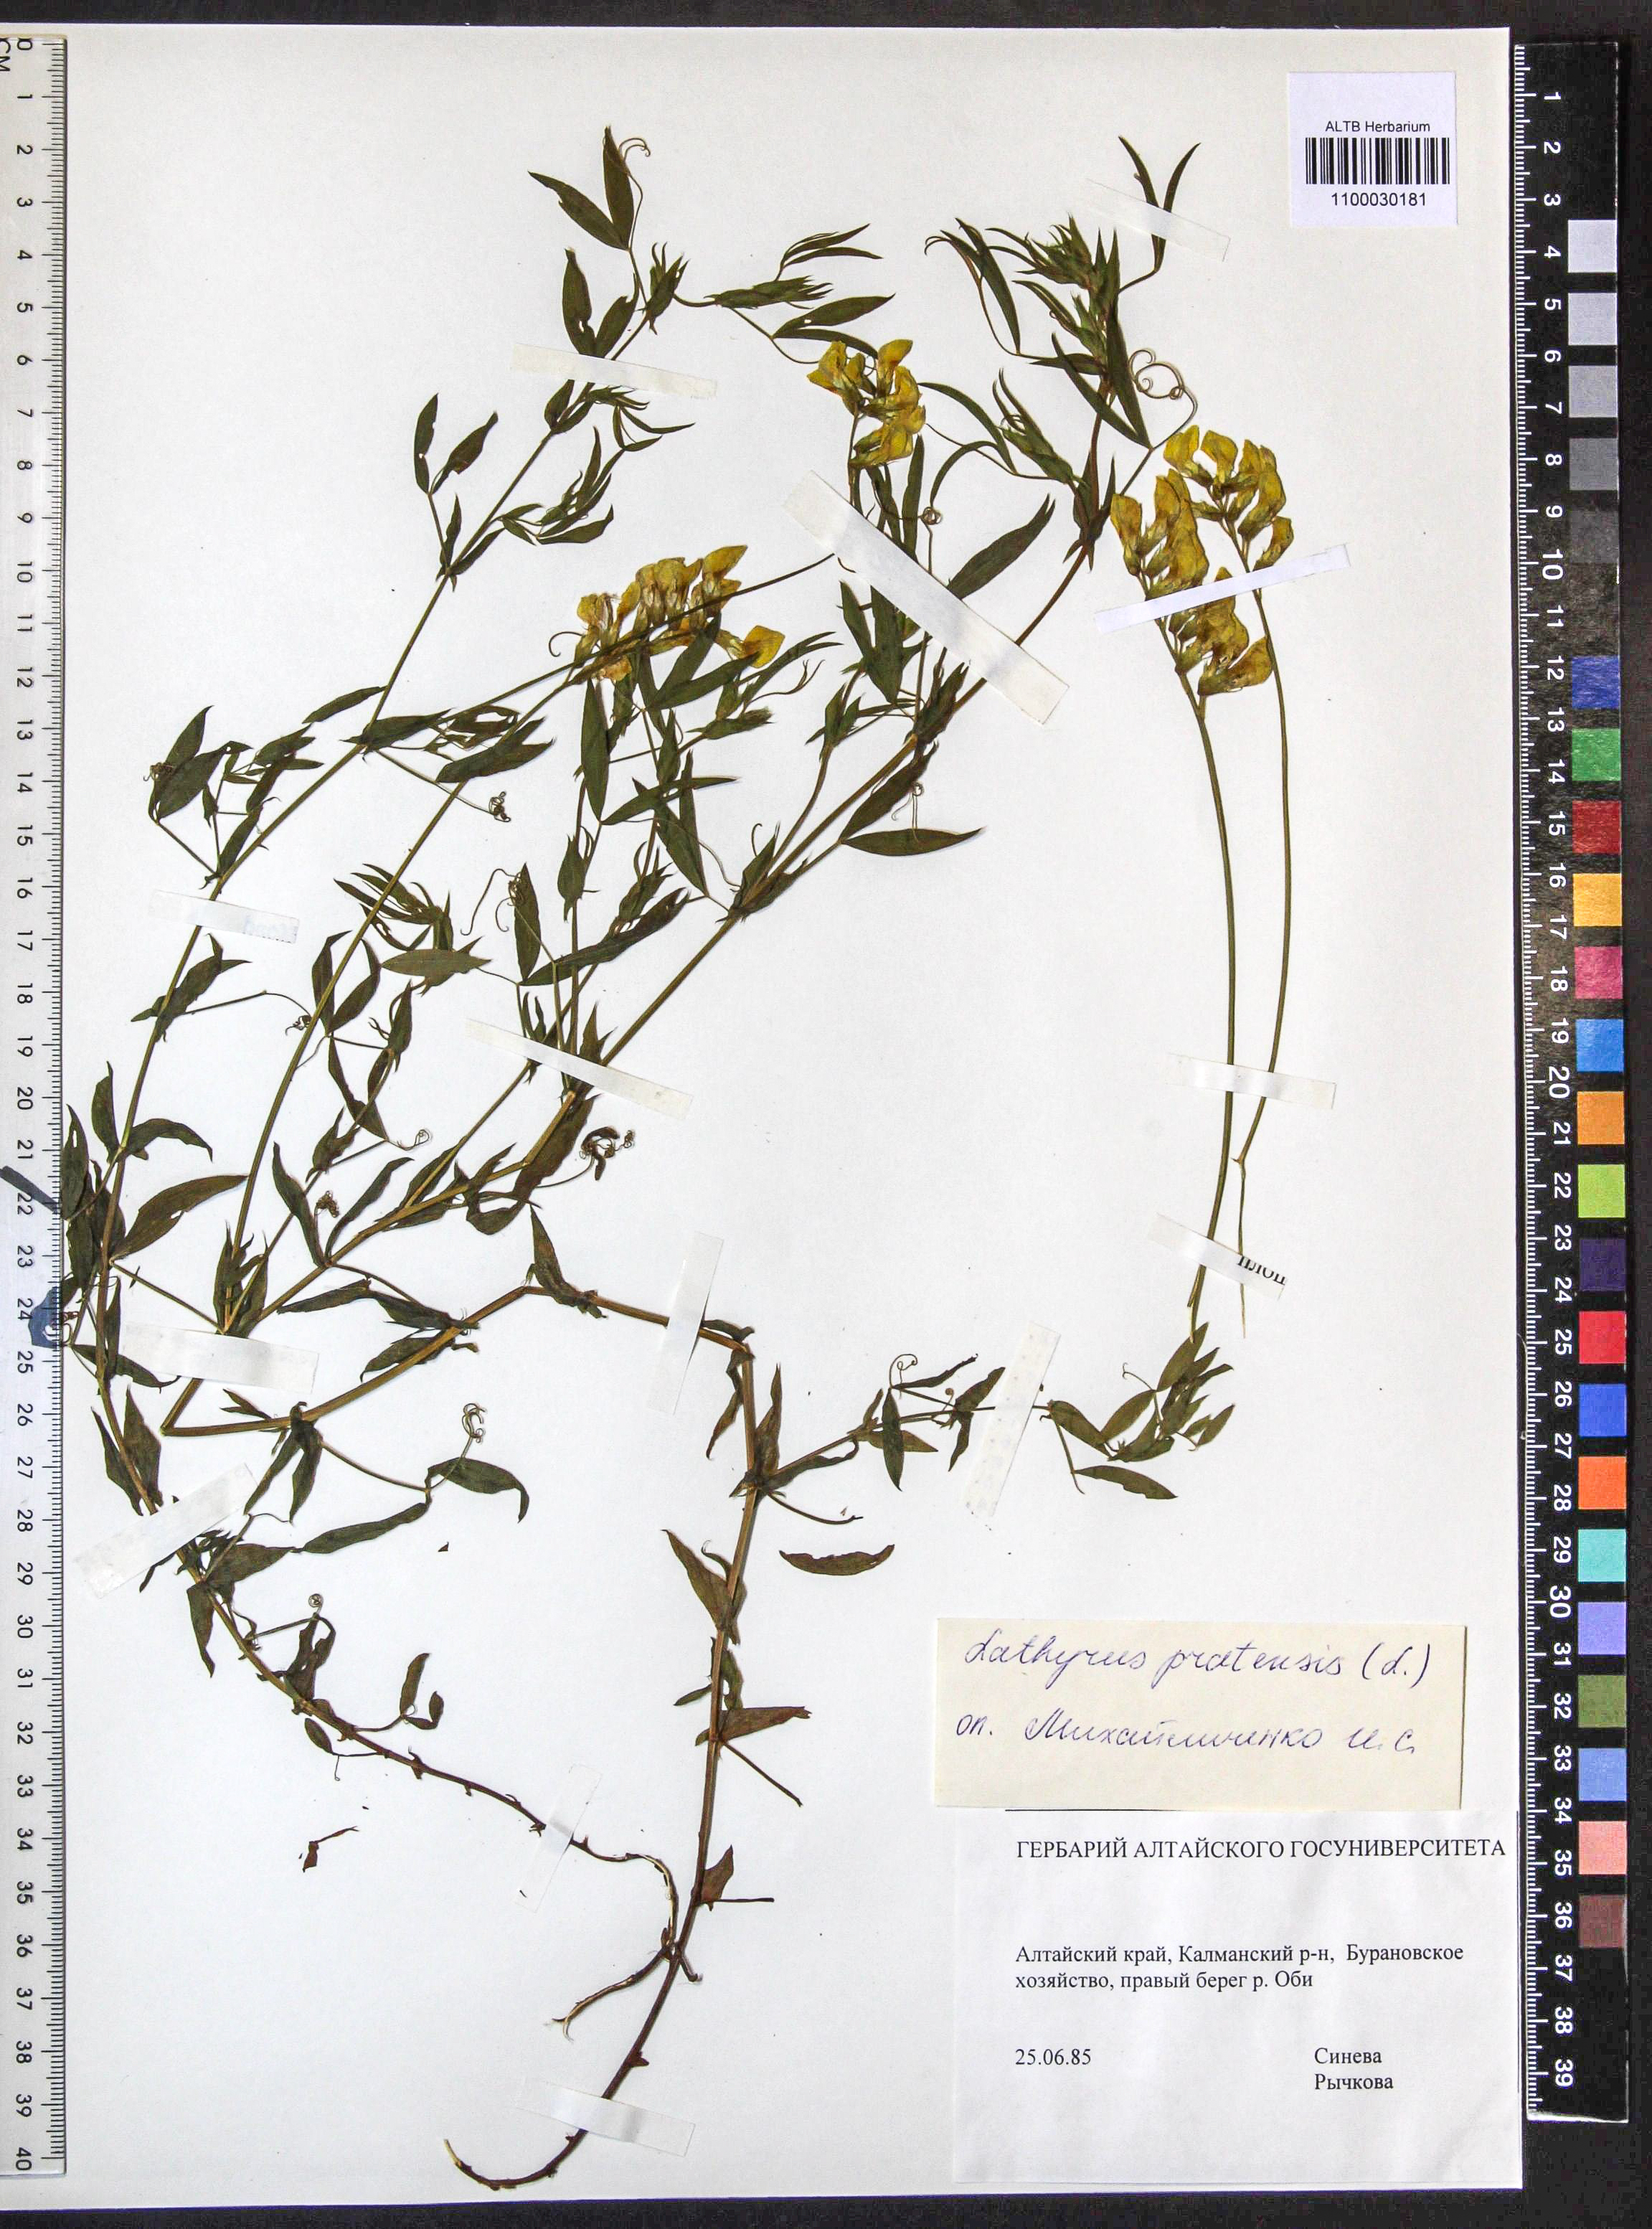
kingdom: Plantae
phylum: Tracheophyta
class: Magnoliopsida
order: Fabales
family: Fabaceae
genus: Lathyrus
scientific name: Lathyrus pratensis
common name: Meadow vetchling
